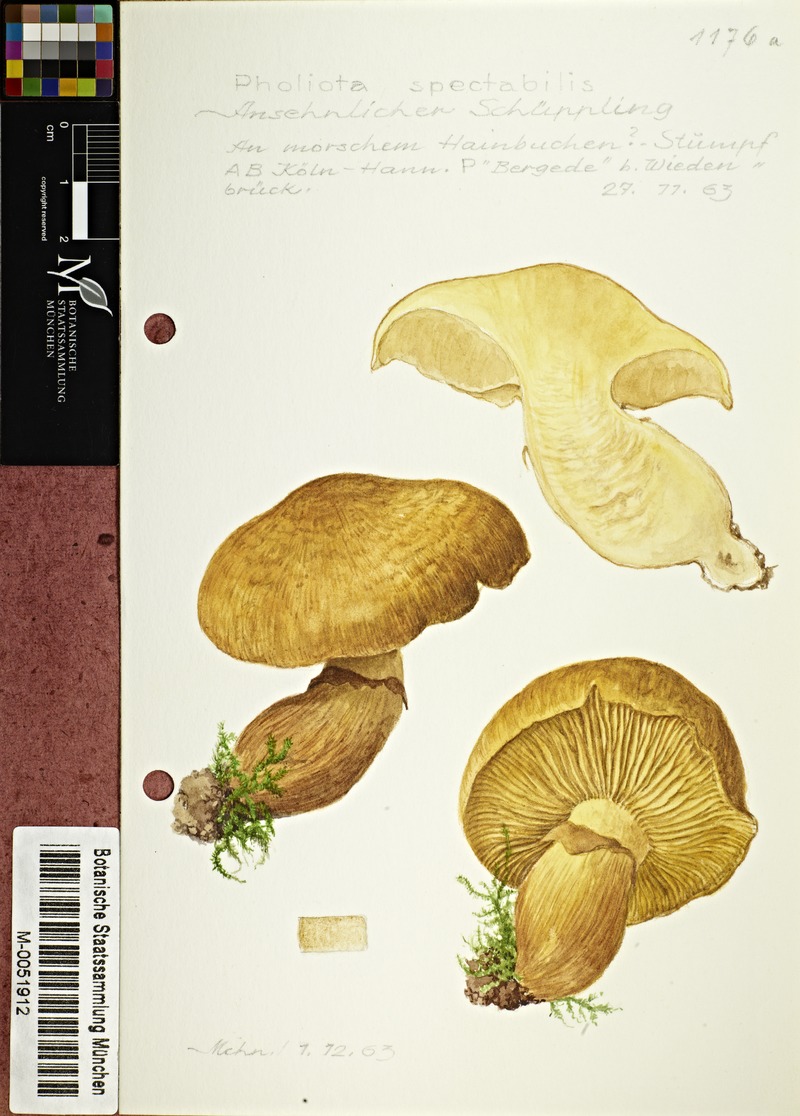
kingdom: Fungi
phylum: Basidiomycota
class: Agaricomycetes
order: Agaricales
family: Hymenogastraceae
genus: Gymnopilus
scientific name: Gymnopilus spectabilis
